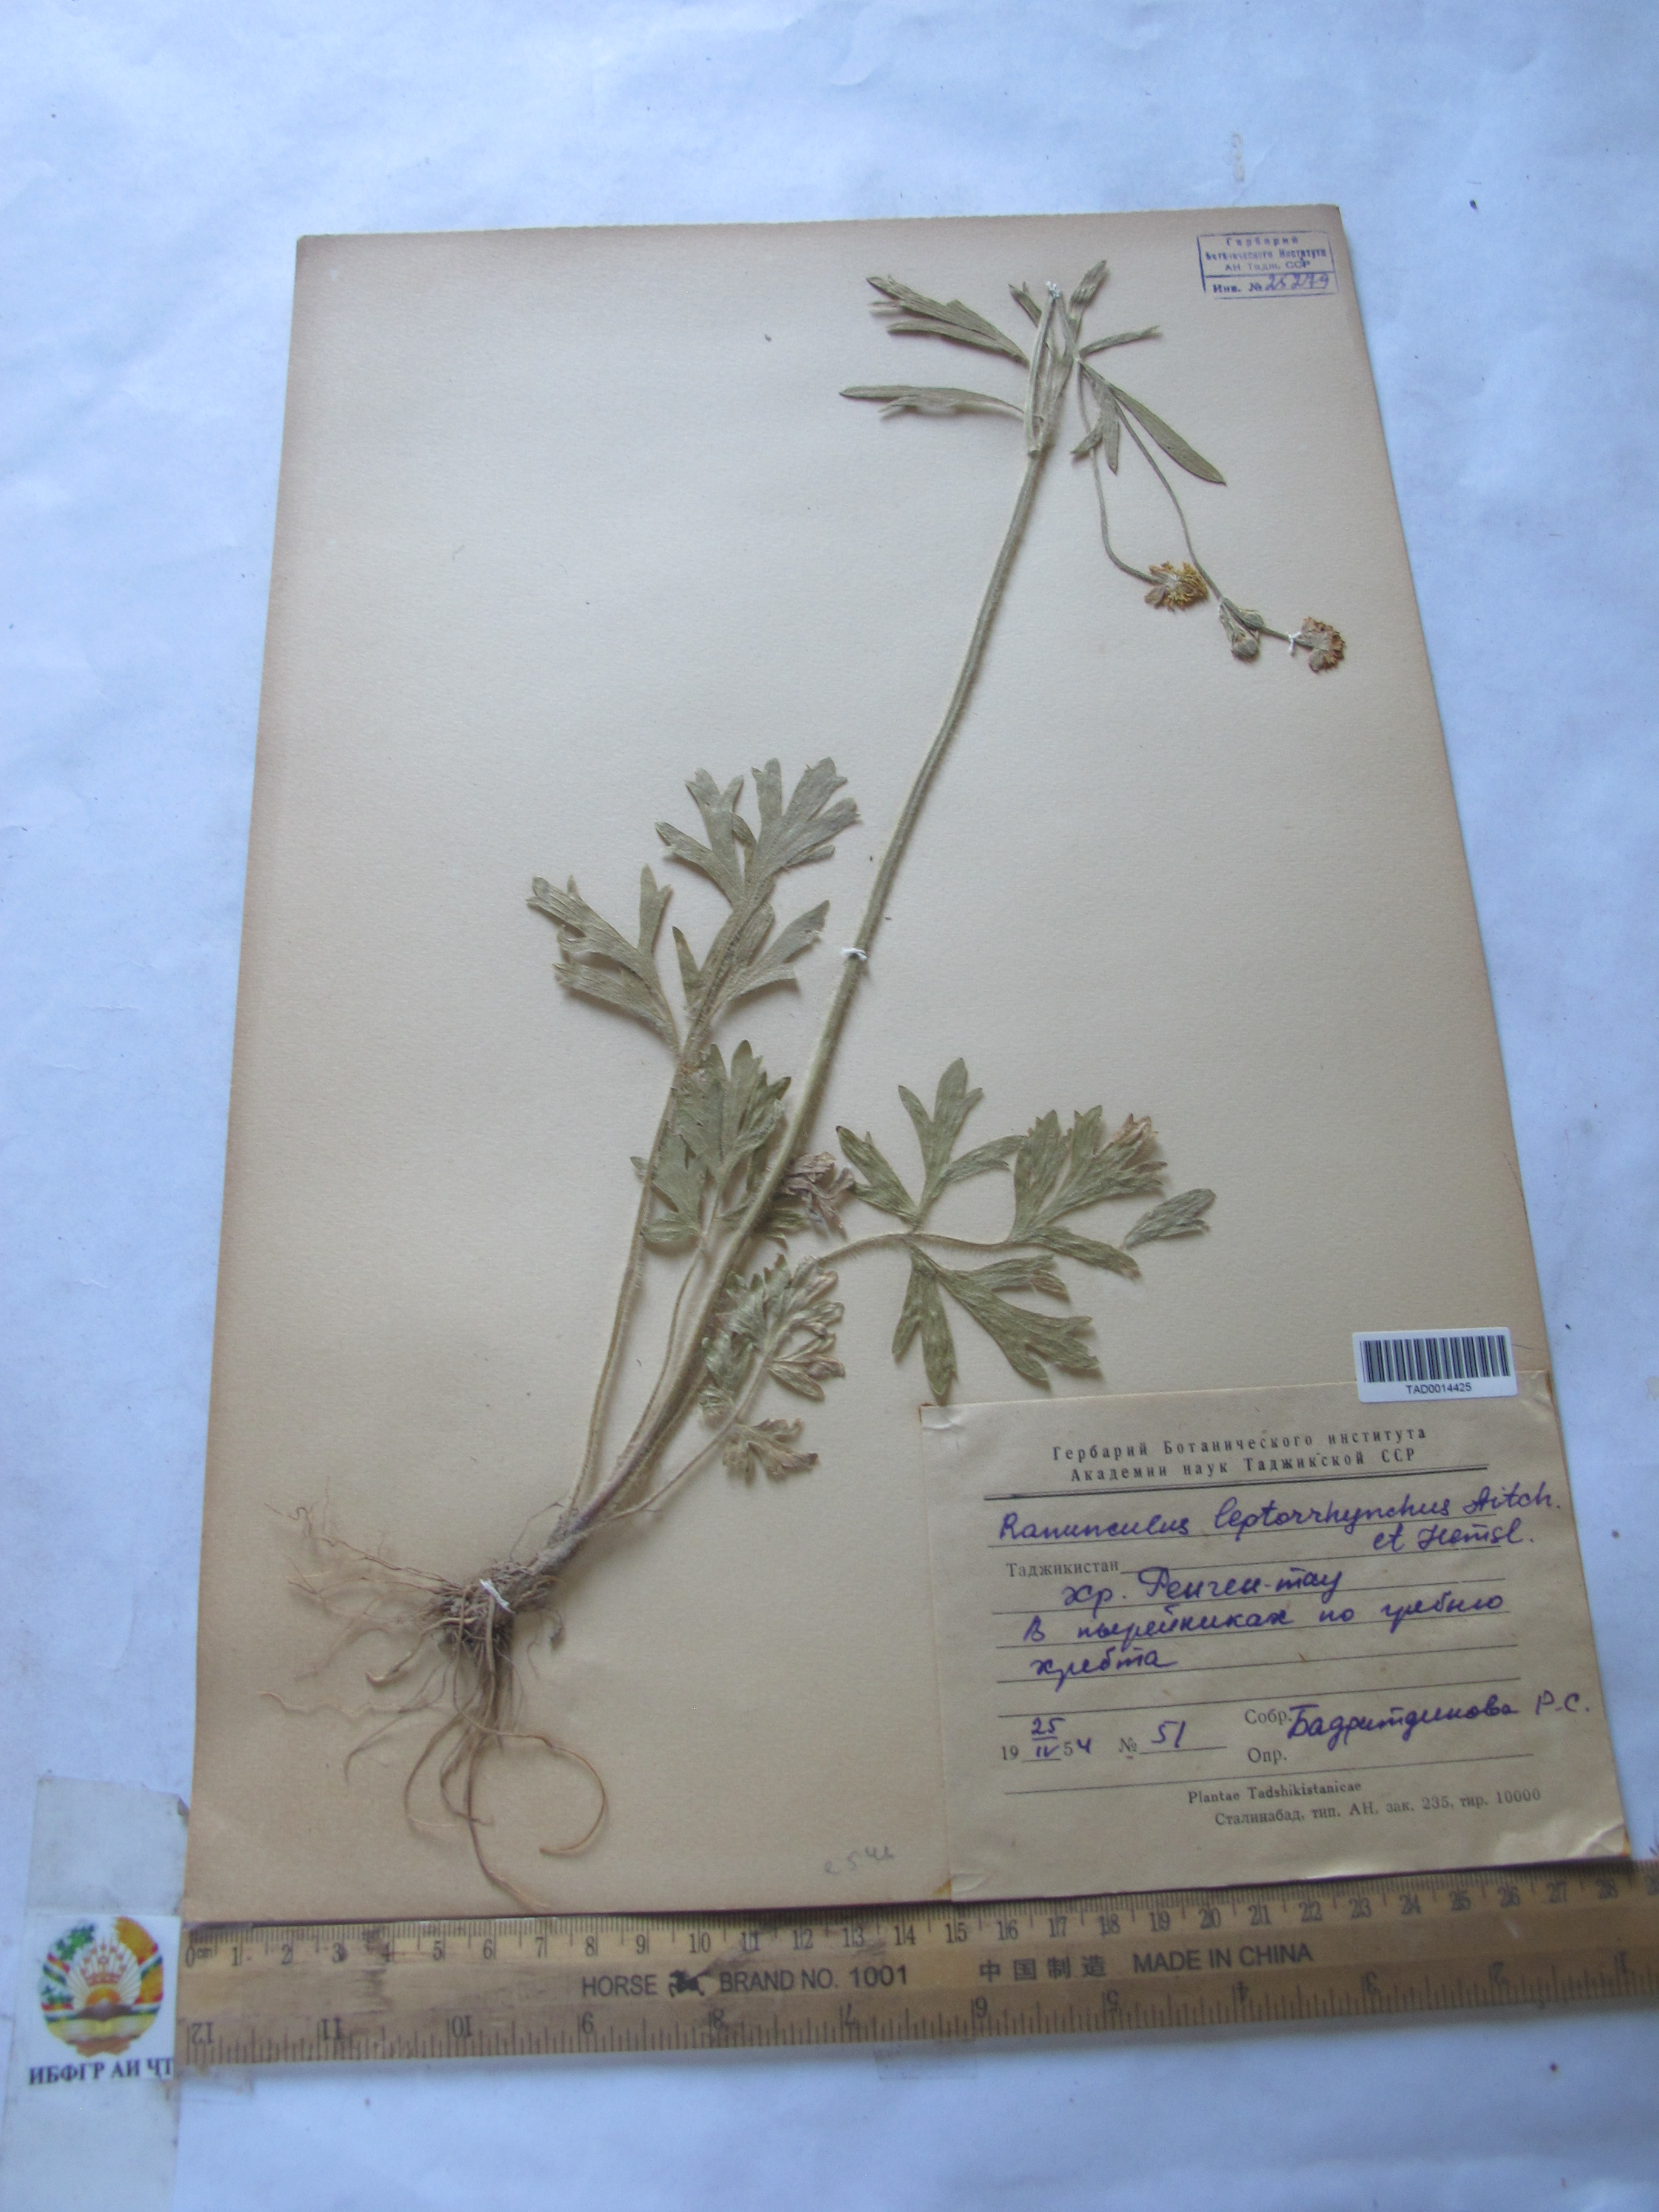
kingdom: Plantae
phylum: Tracheophyta
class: Magnoliopsida
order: Ranunculales
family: Ranunculaceae
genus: Ranunculus
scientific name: Ranunculus leptorrhynchus
